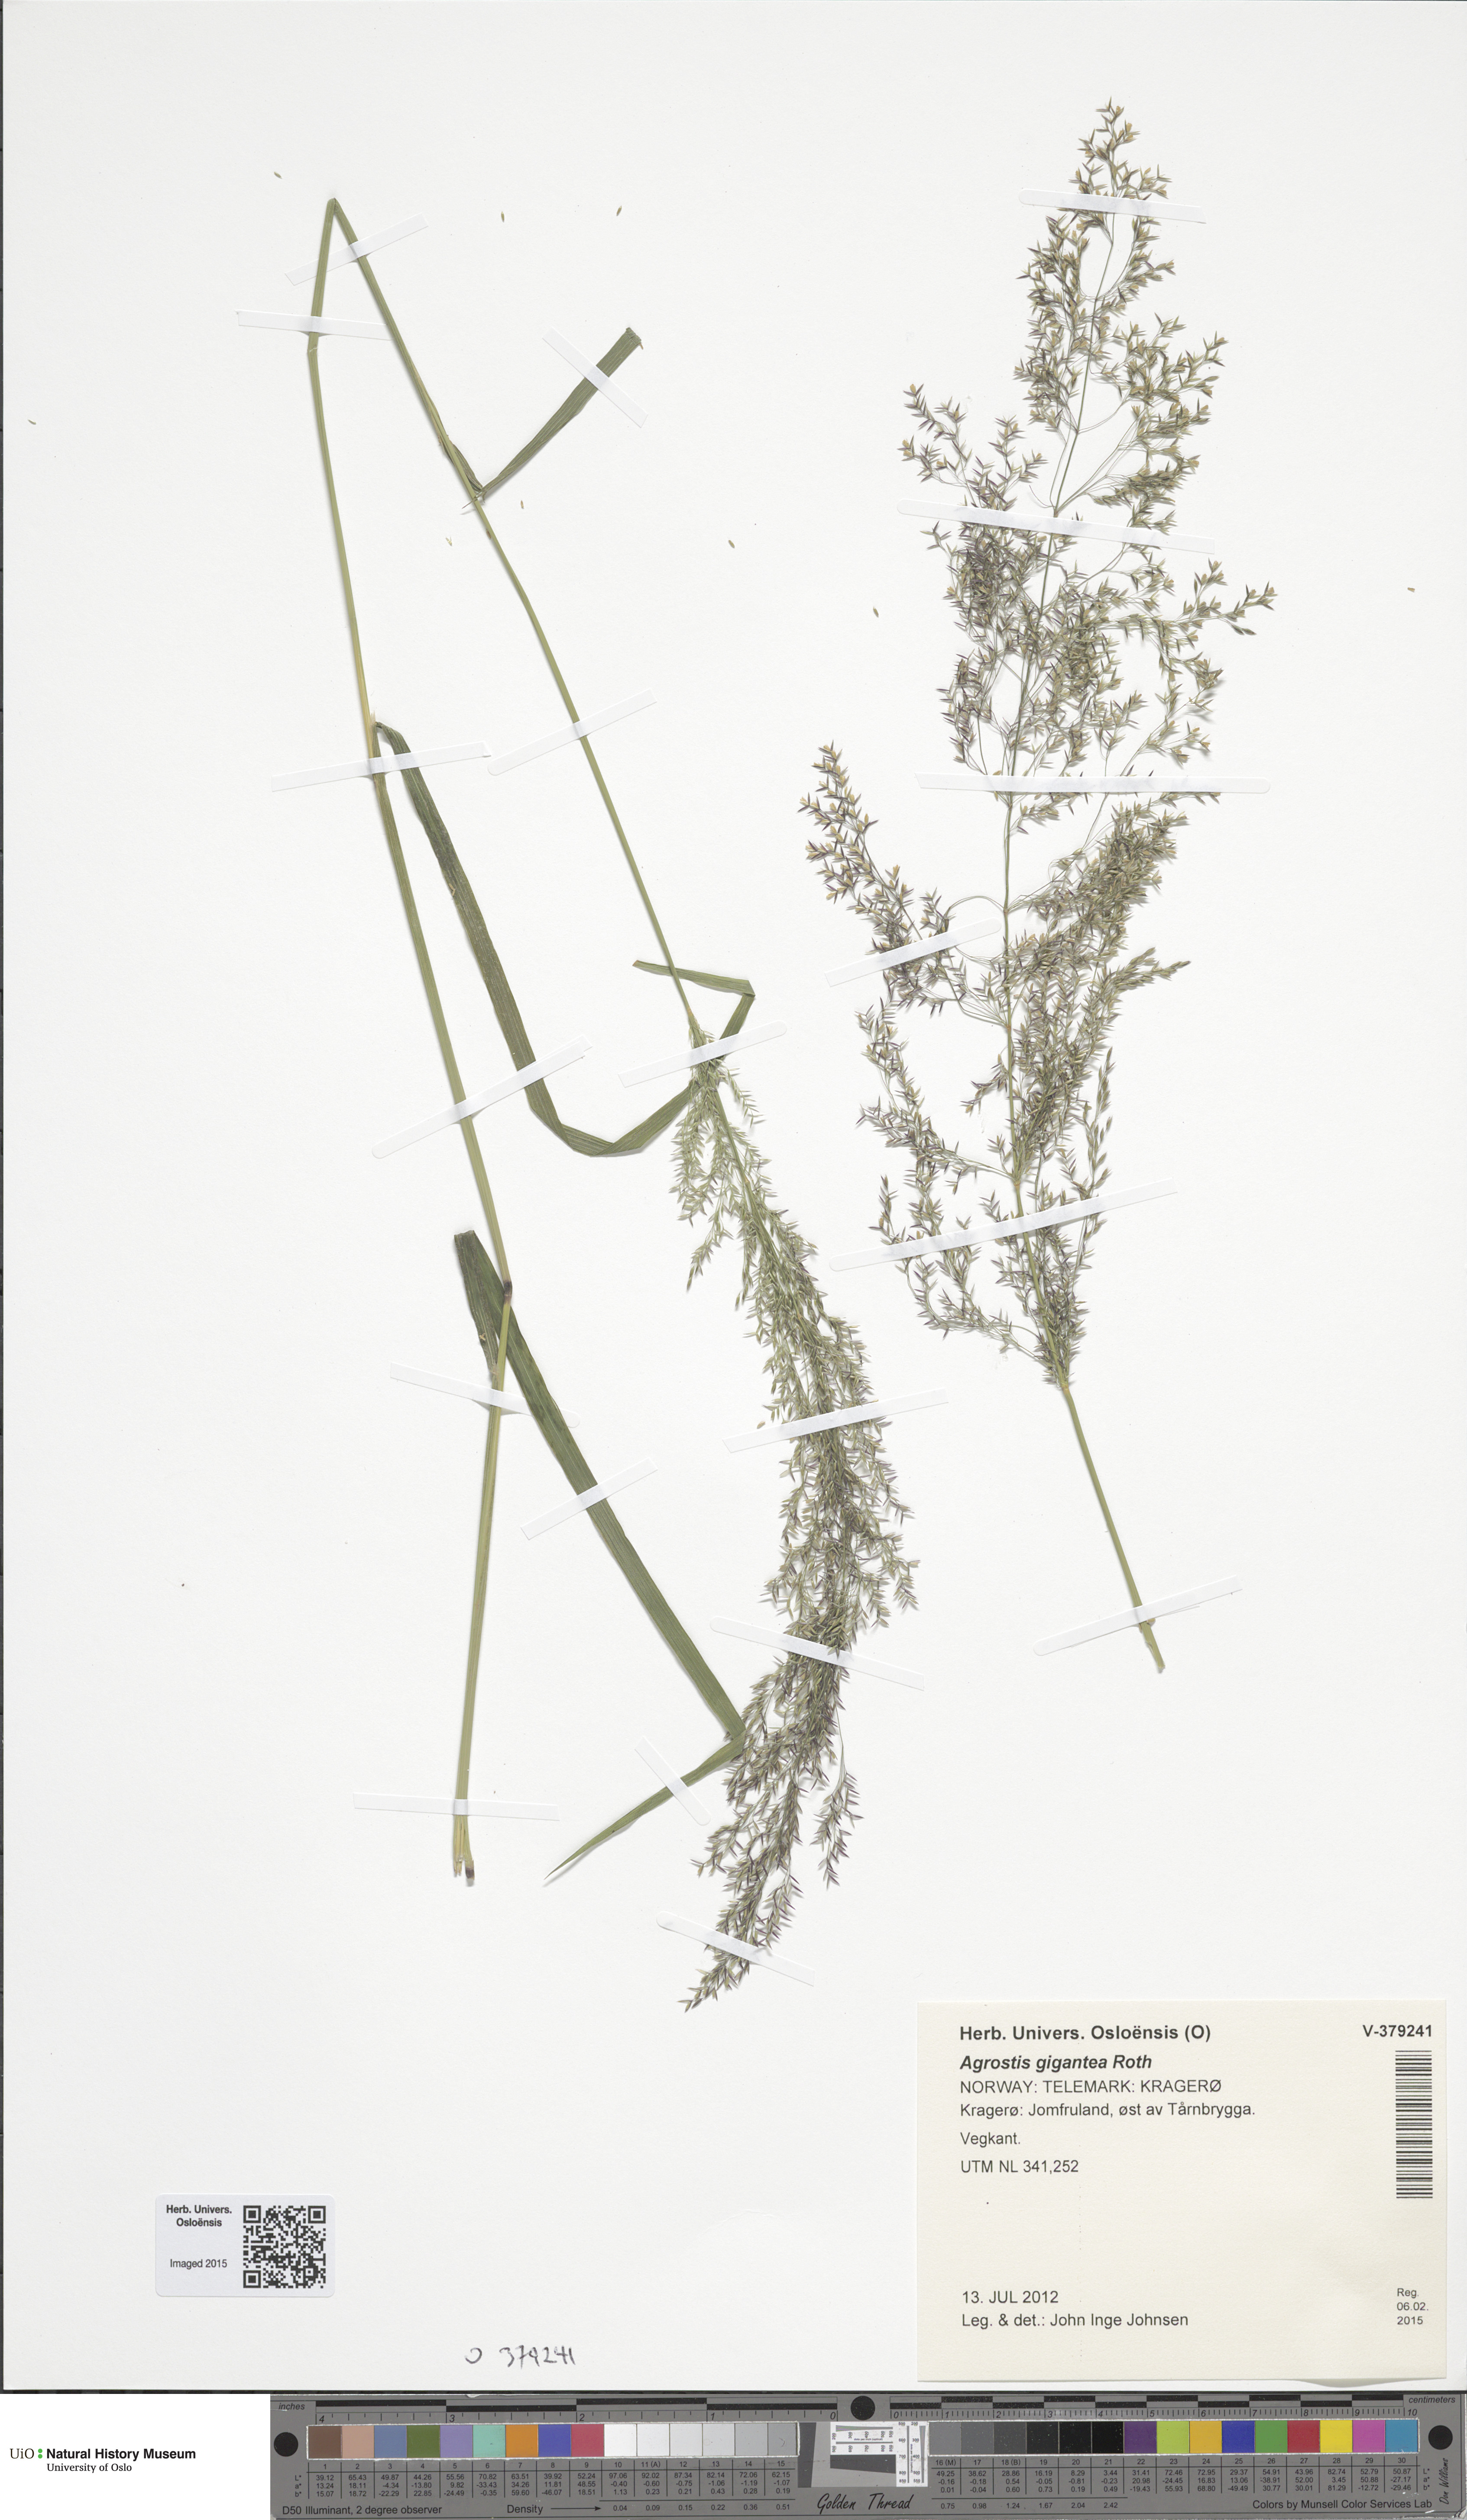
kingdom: Plantae
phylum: Tracheophyta
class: Liliopsida
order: Poales
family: Poaceae
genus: Agrostis
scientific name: Agrostis gigantea
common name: Black bent
